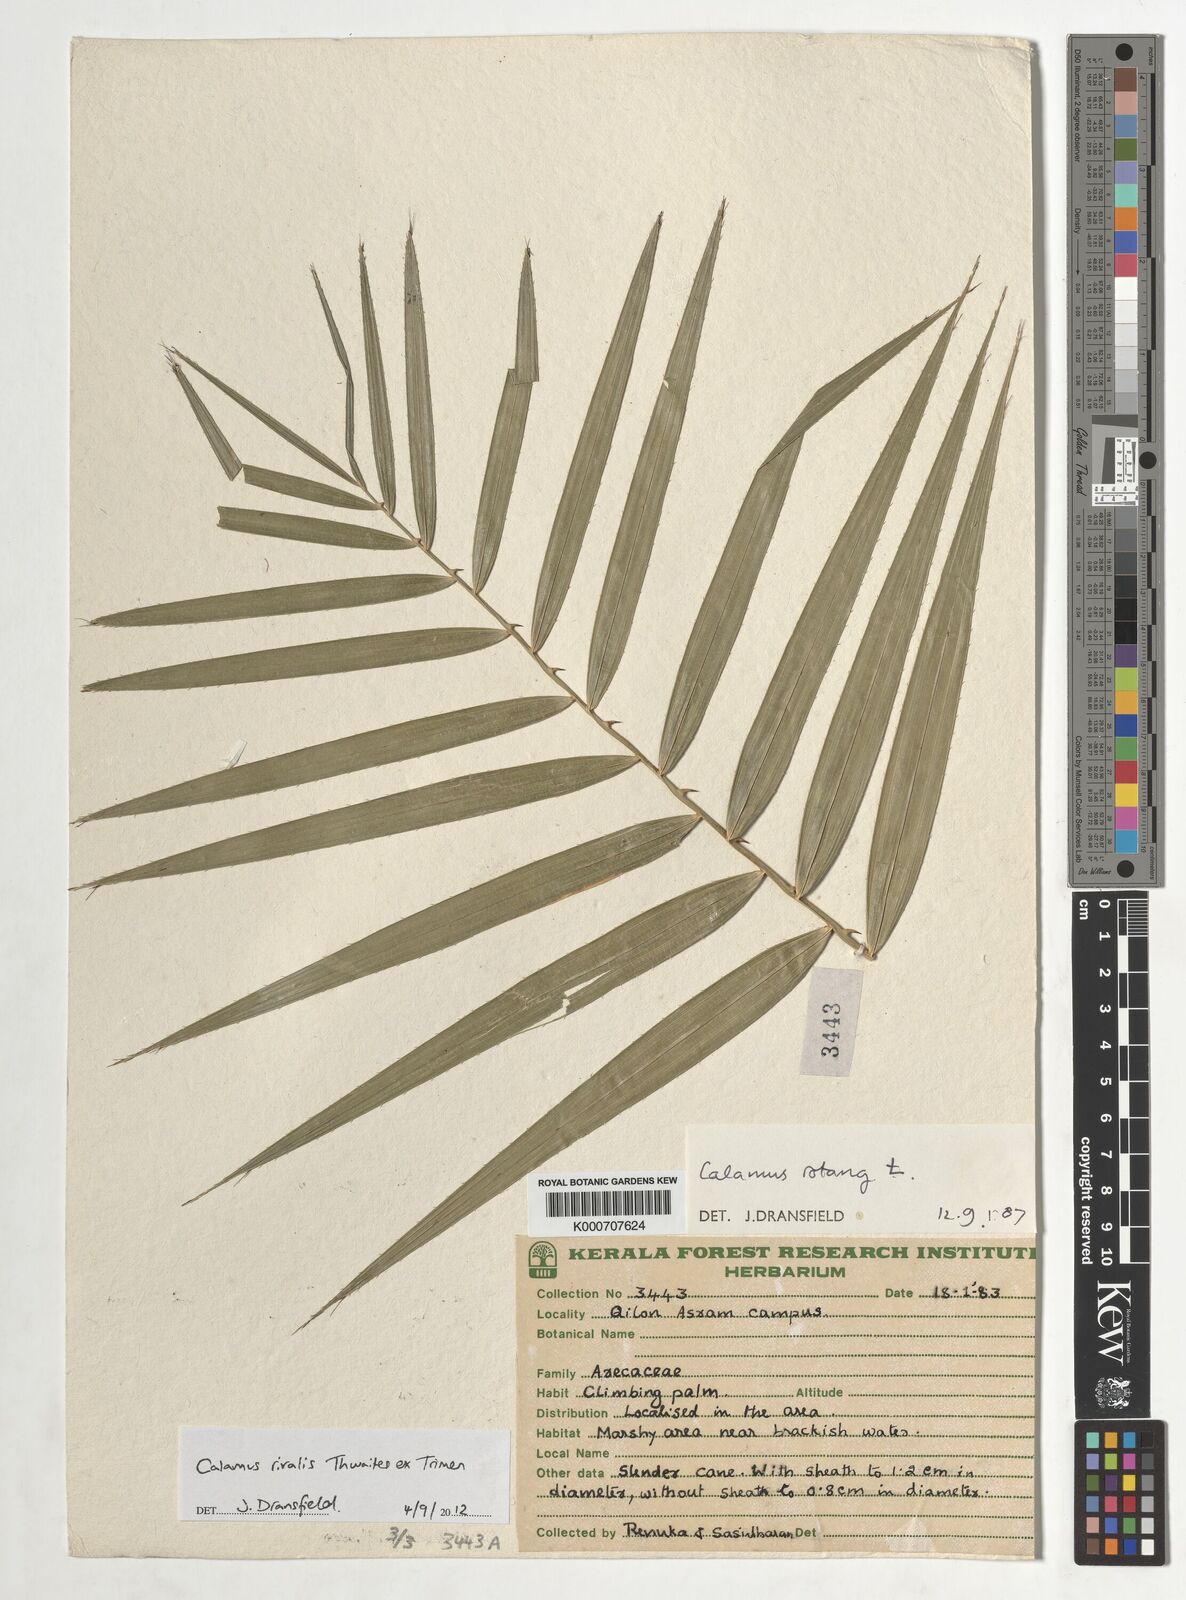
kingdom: Plantae
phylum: Tracheophyta
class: Liliopsida
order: Arecales
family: Arecaceae
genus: Calamus
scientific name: Calamus metzianus
